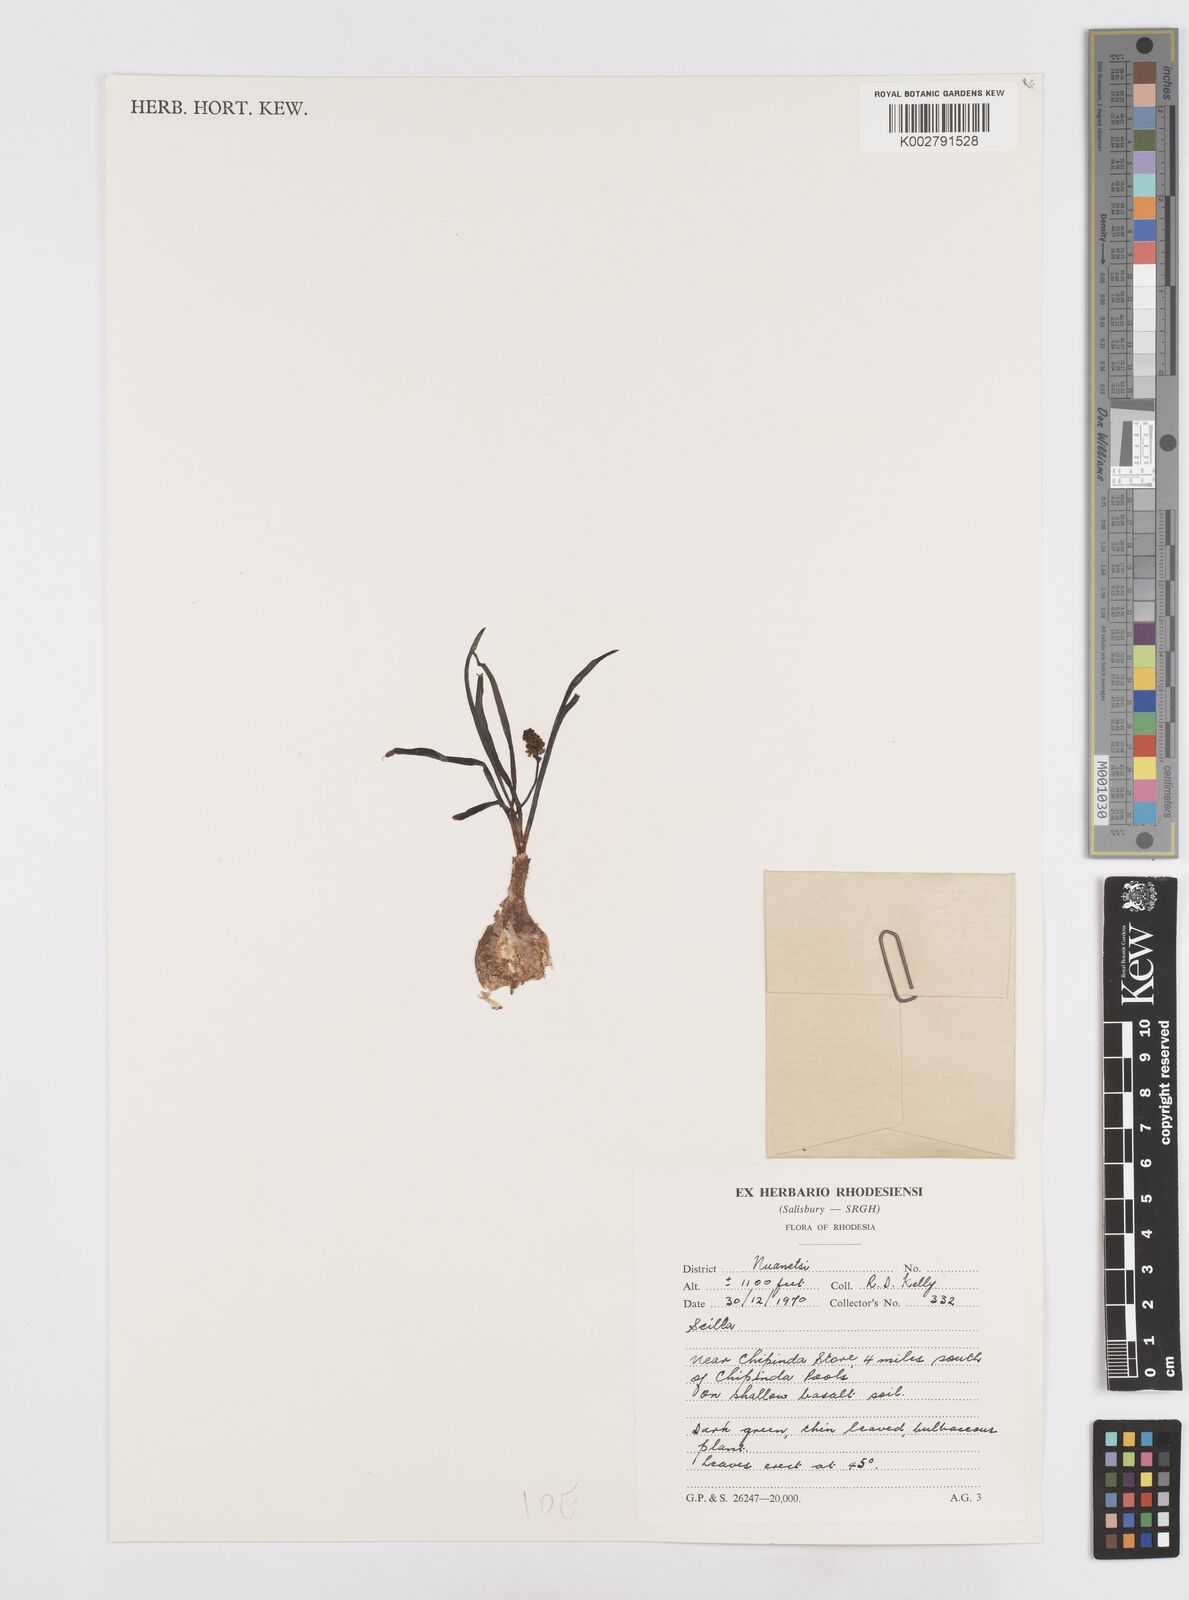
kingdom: Plantae
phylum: Tracheophyta
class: Liliopsida
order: Asparagales
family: Asparagaceae
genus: Scilla
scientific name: Scilla
